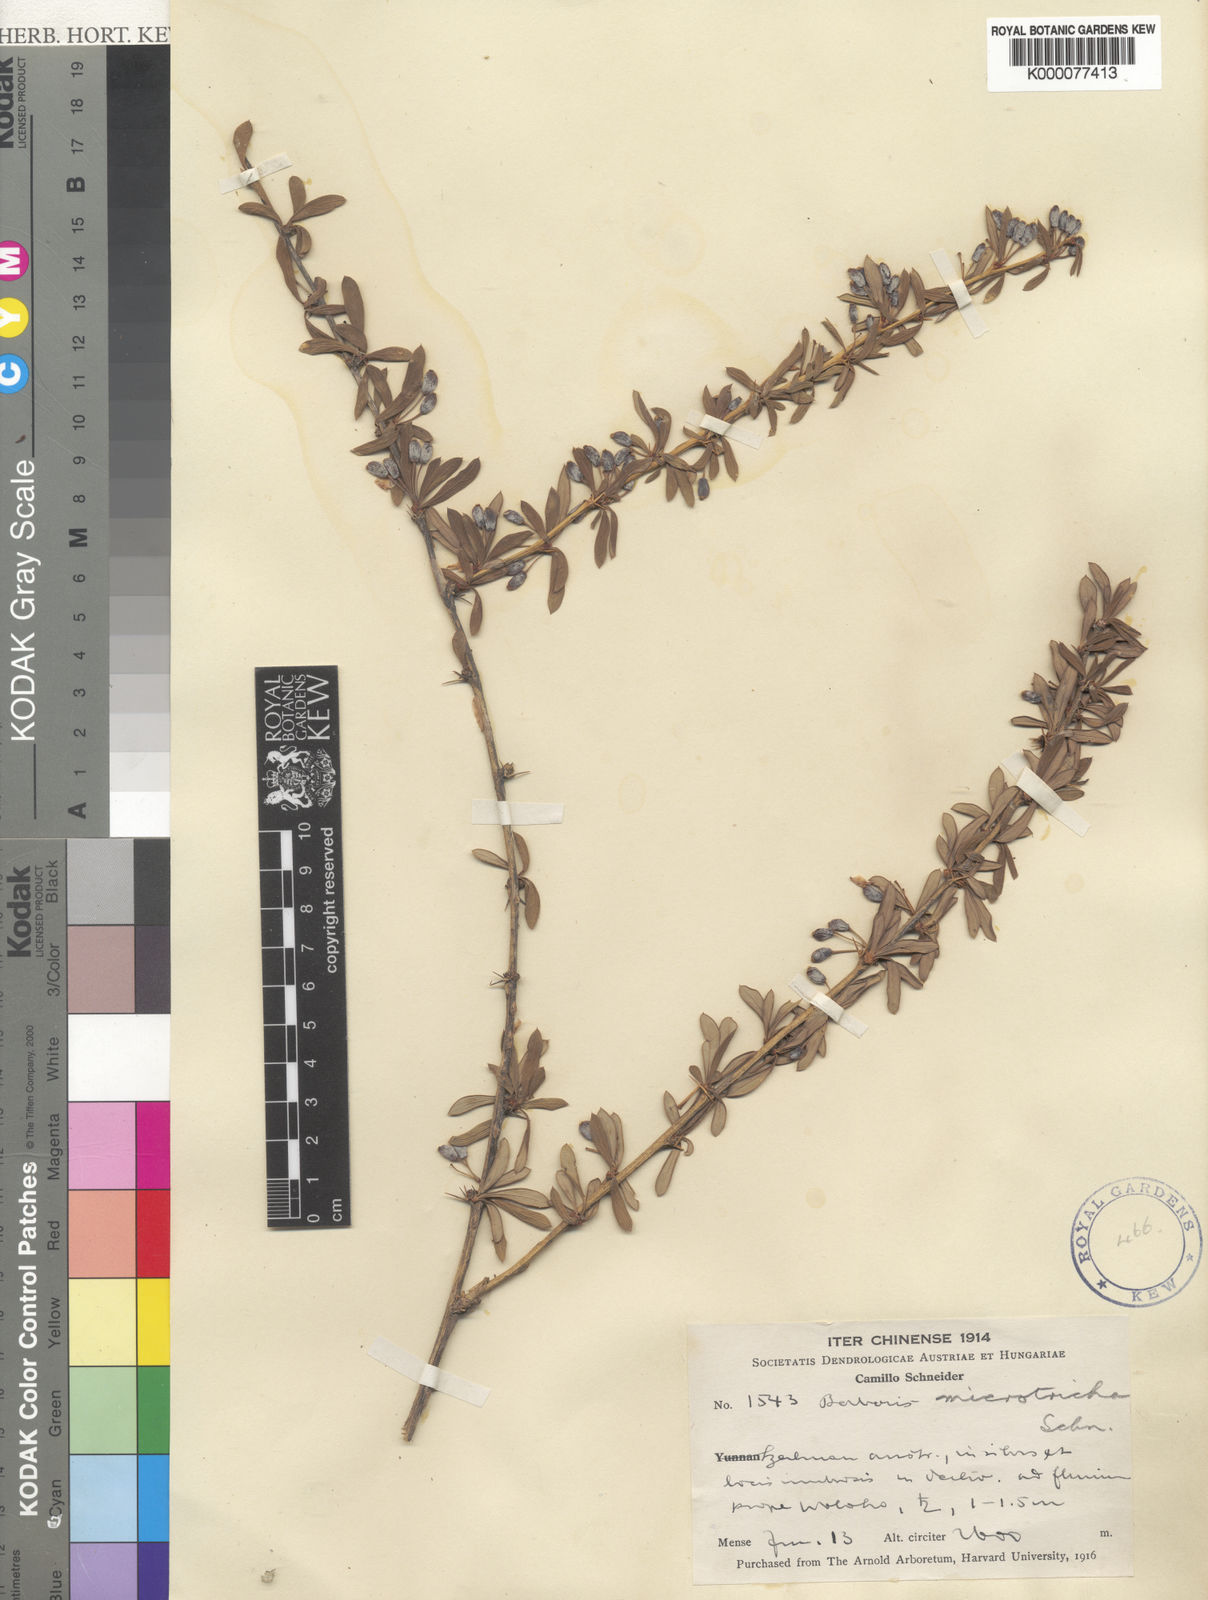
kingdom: Plantae
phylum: Tracheophyta
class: Magnoliopsida
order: Ranunculales
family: Berberidaceae
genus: Berberis
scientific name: Berberis microtricha
